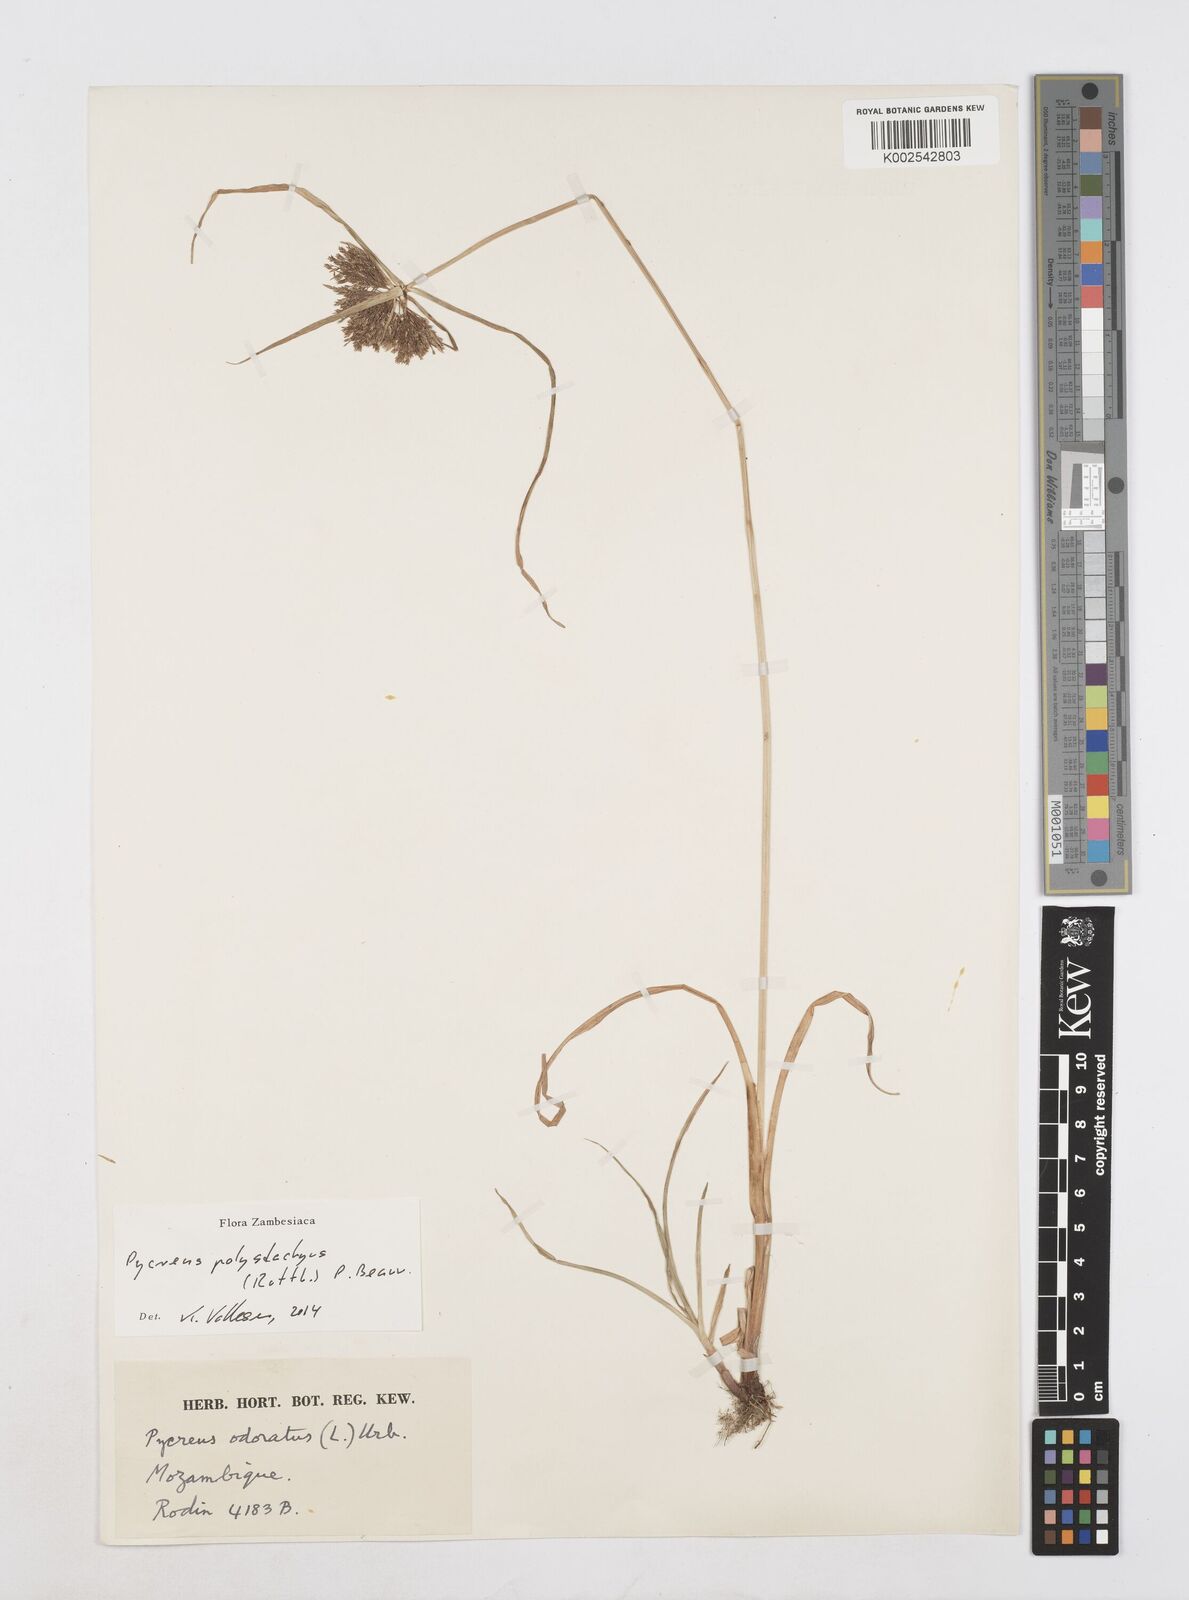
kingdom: Plantae
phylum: Tracheophyta
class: Liliopsida
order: Poales
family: Cyperaceae
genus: Cyperus
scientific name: Cyperus polystachyos
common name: Bunchy flat sedge
